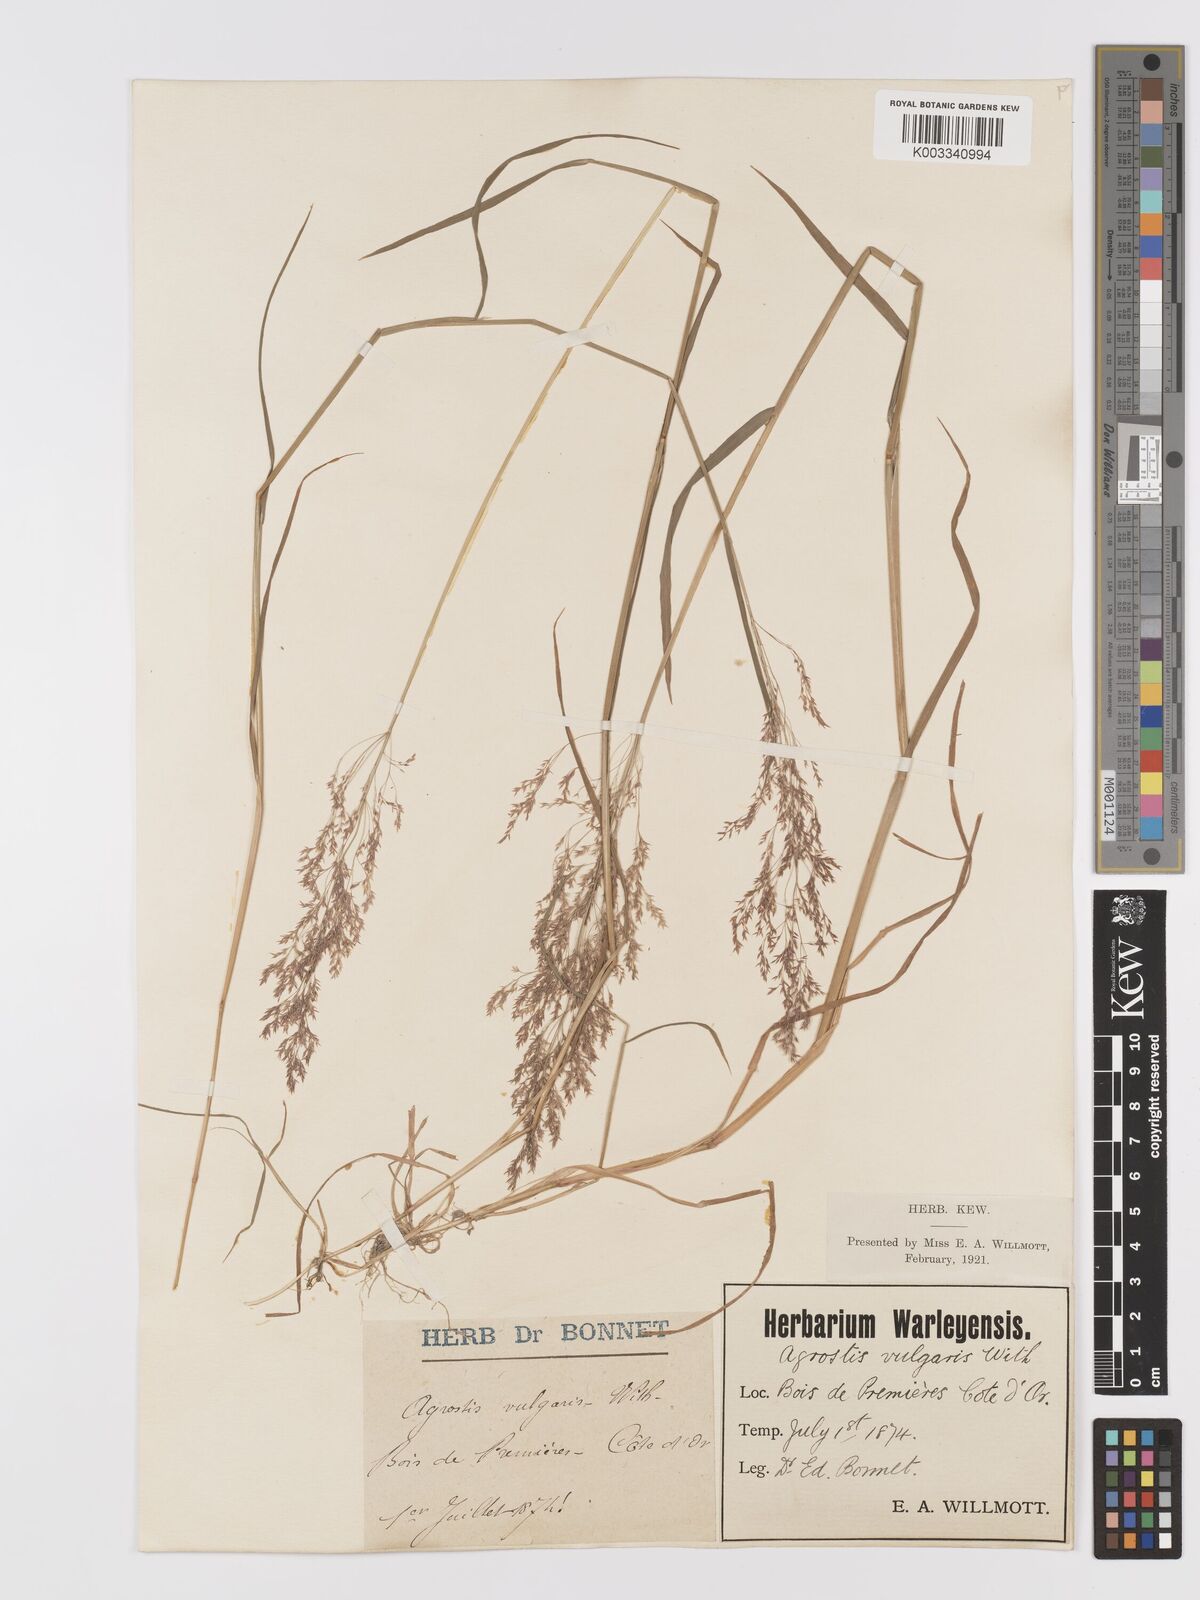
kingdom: Plantae
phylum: Tracheophyta
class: Liliopsida
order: Poales
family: Poaceae
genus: Agrostis
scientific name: Agrostis capillaris
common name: Colonial bentgrass
